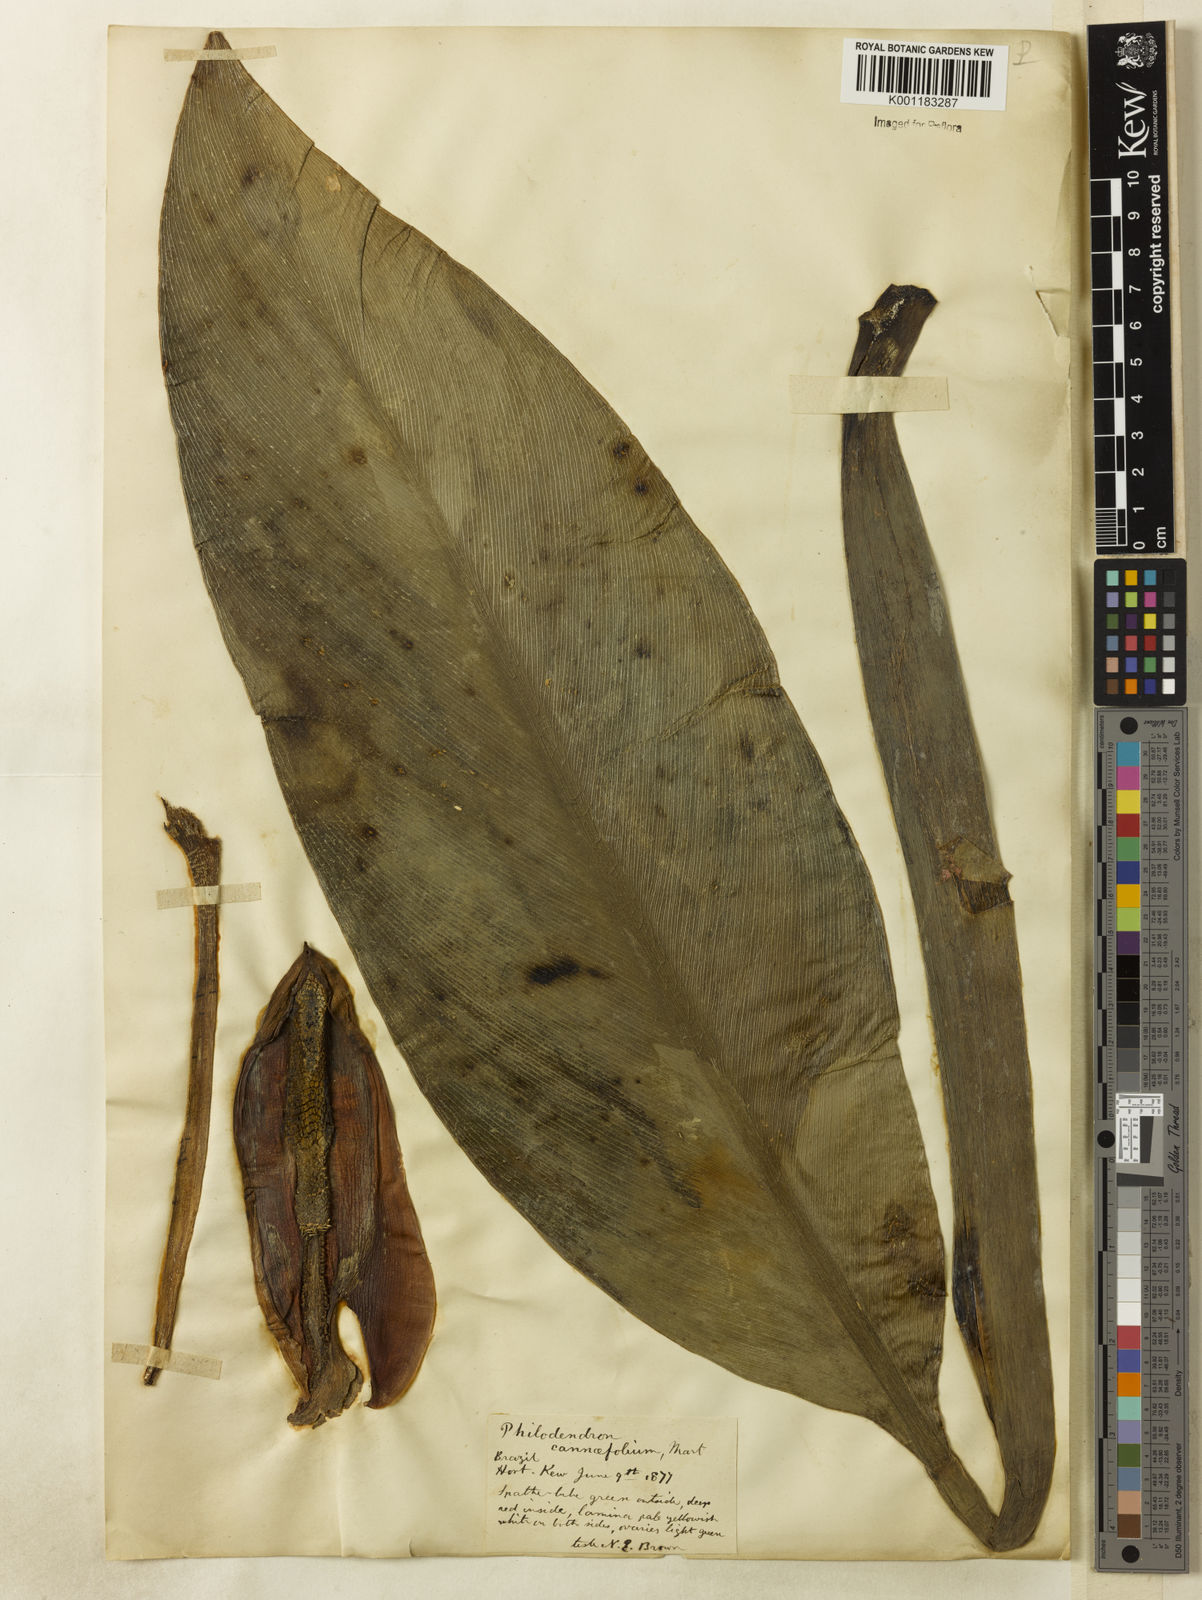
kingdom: Plantae
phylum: Tracheophyta
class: Liliopsida
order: Alismatales
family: Araceae
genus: Philodendron
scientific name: Philodendron martianum
